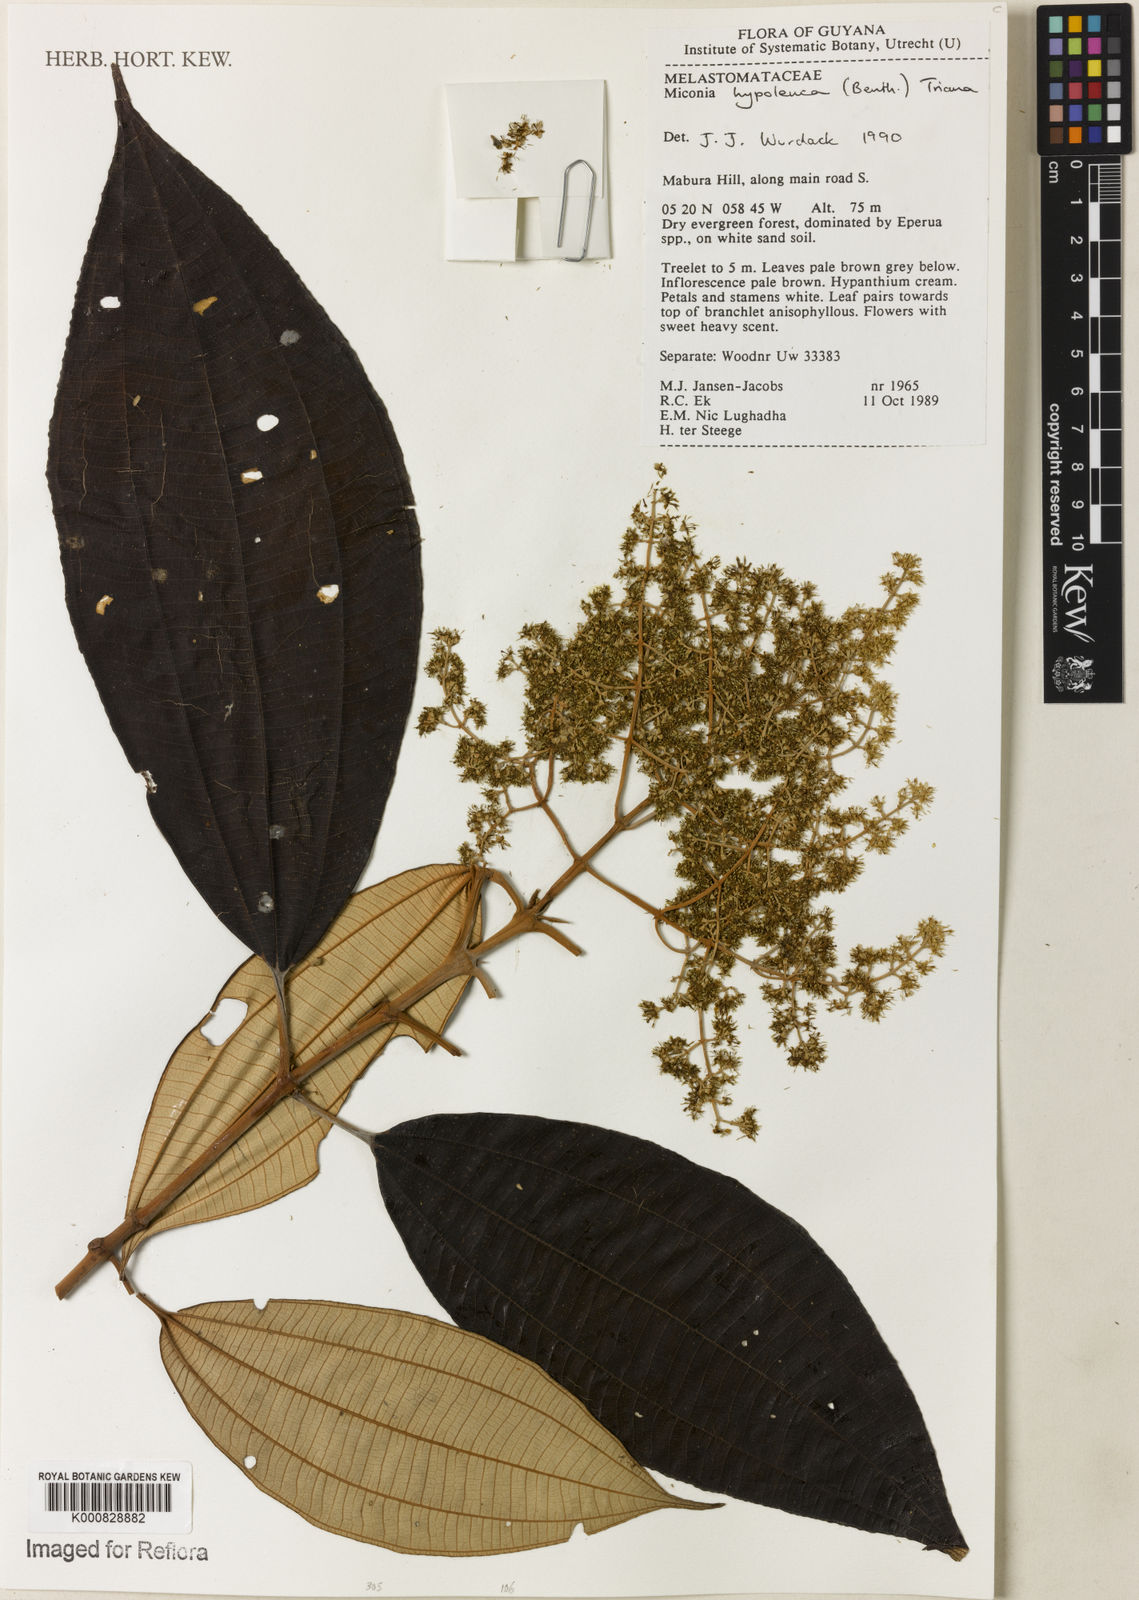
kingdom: Plantae
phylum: Tracheophyta
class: Magnoliopsida
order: Myrtales
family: Melastomataceae
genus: Miconia
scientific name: Miconia hypoleuca
